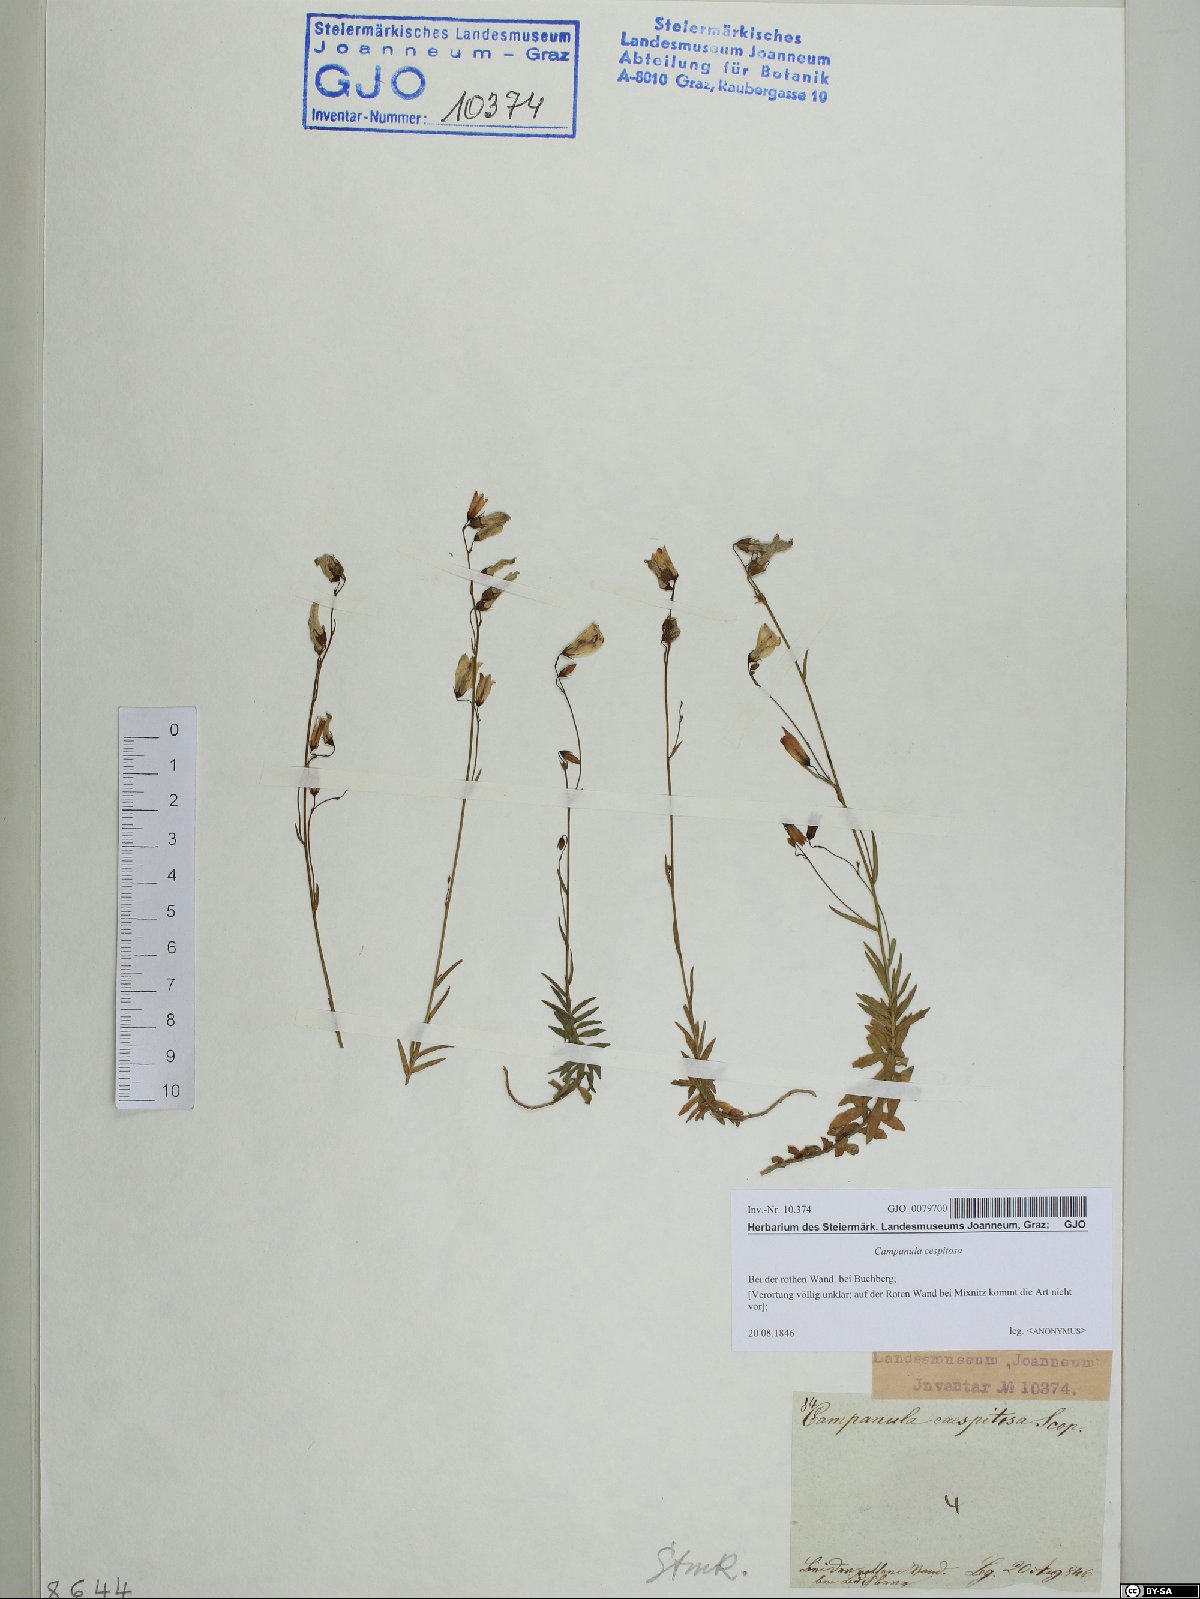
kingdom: Plantae
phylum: Tracheophyta
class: Magnoliopsida
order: Asterales
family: Campanulaceae
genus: Campanula
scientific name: Campanula cespitosa
